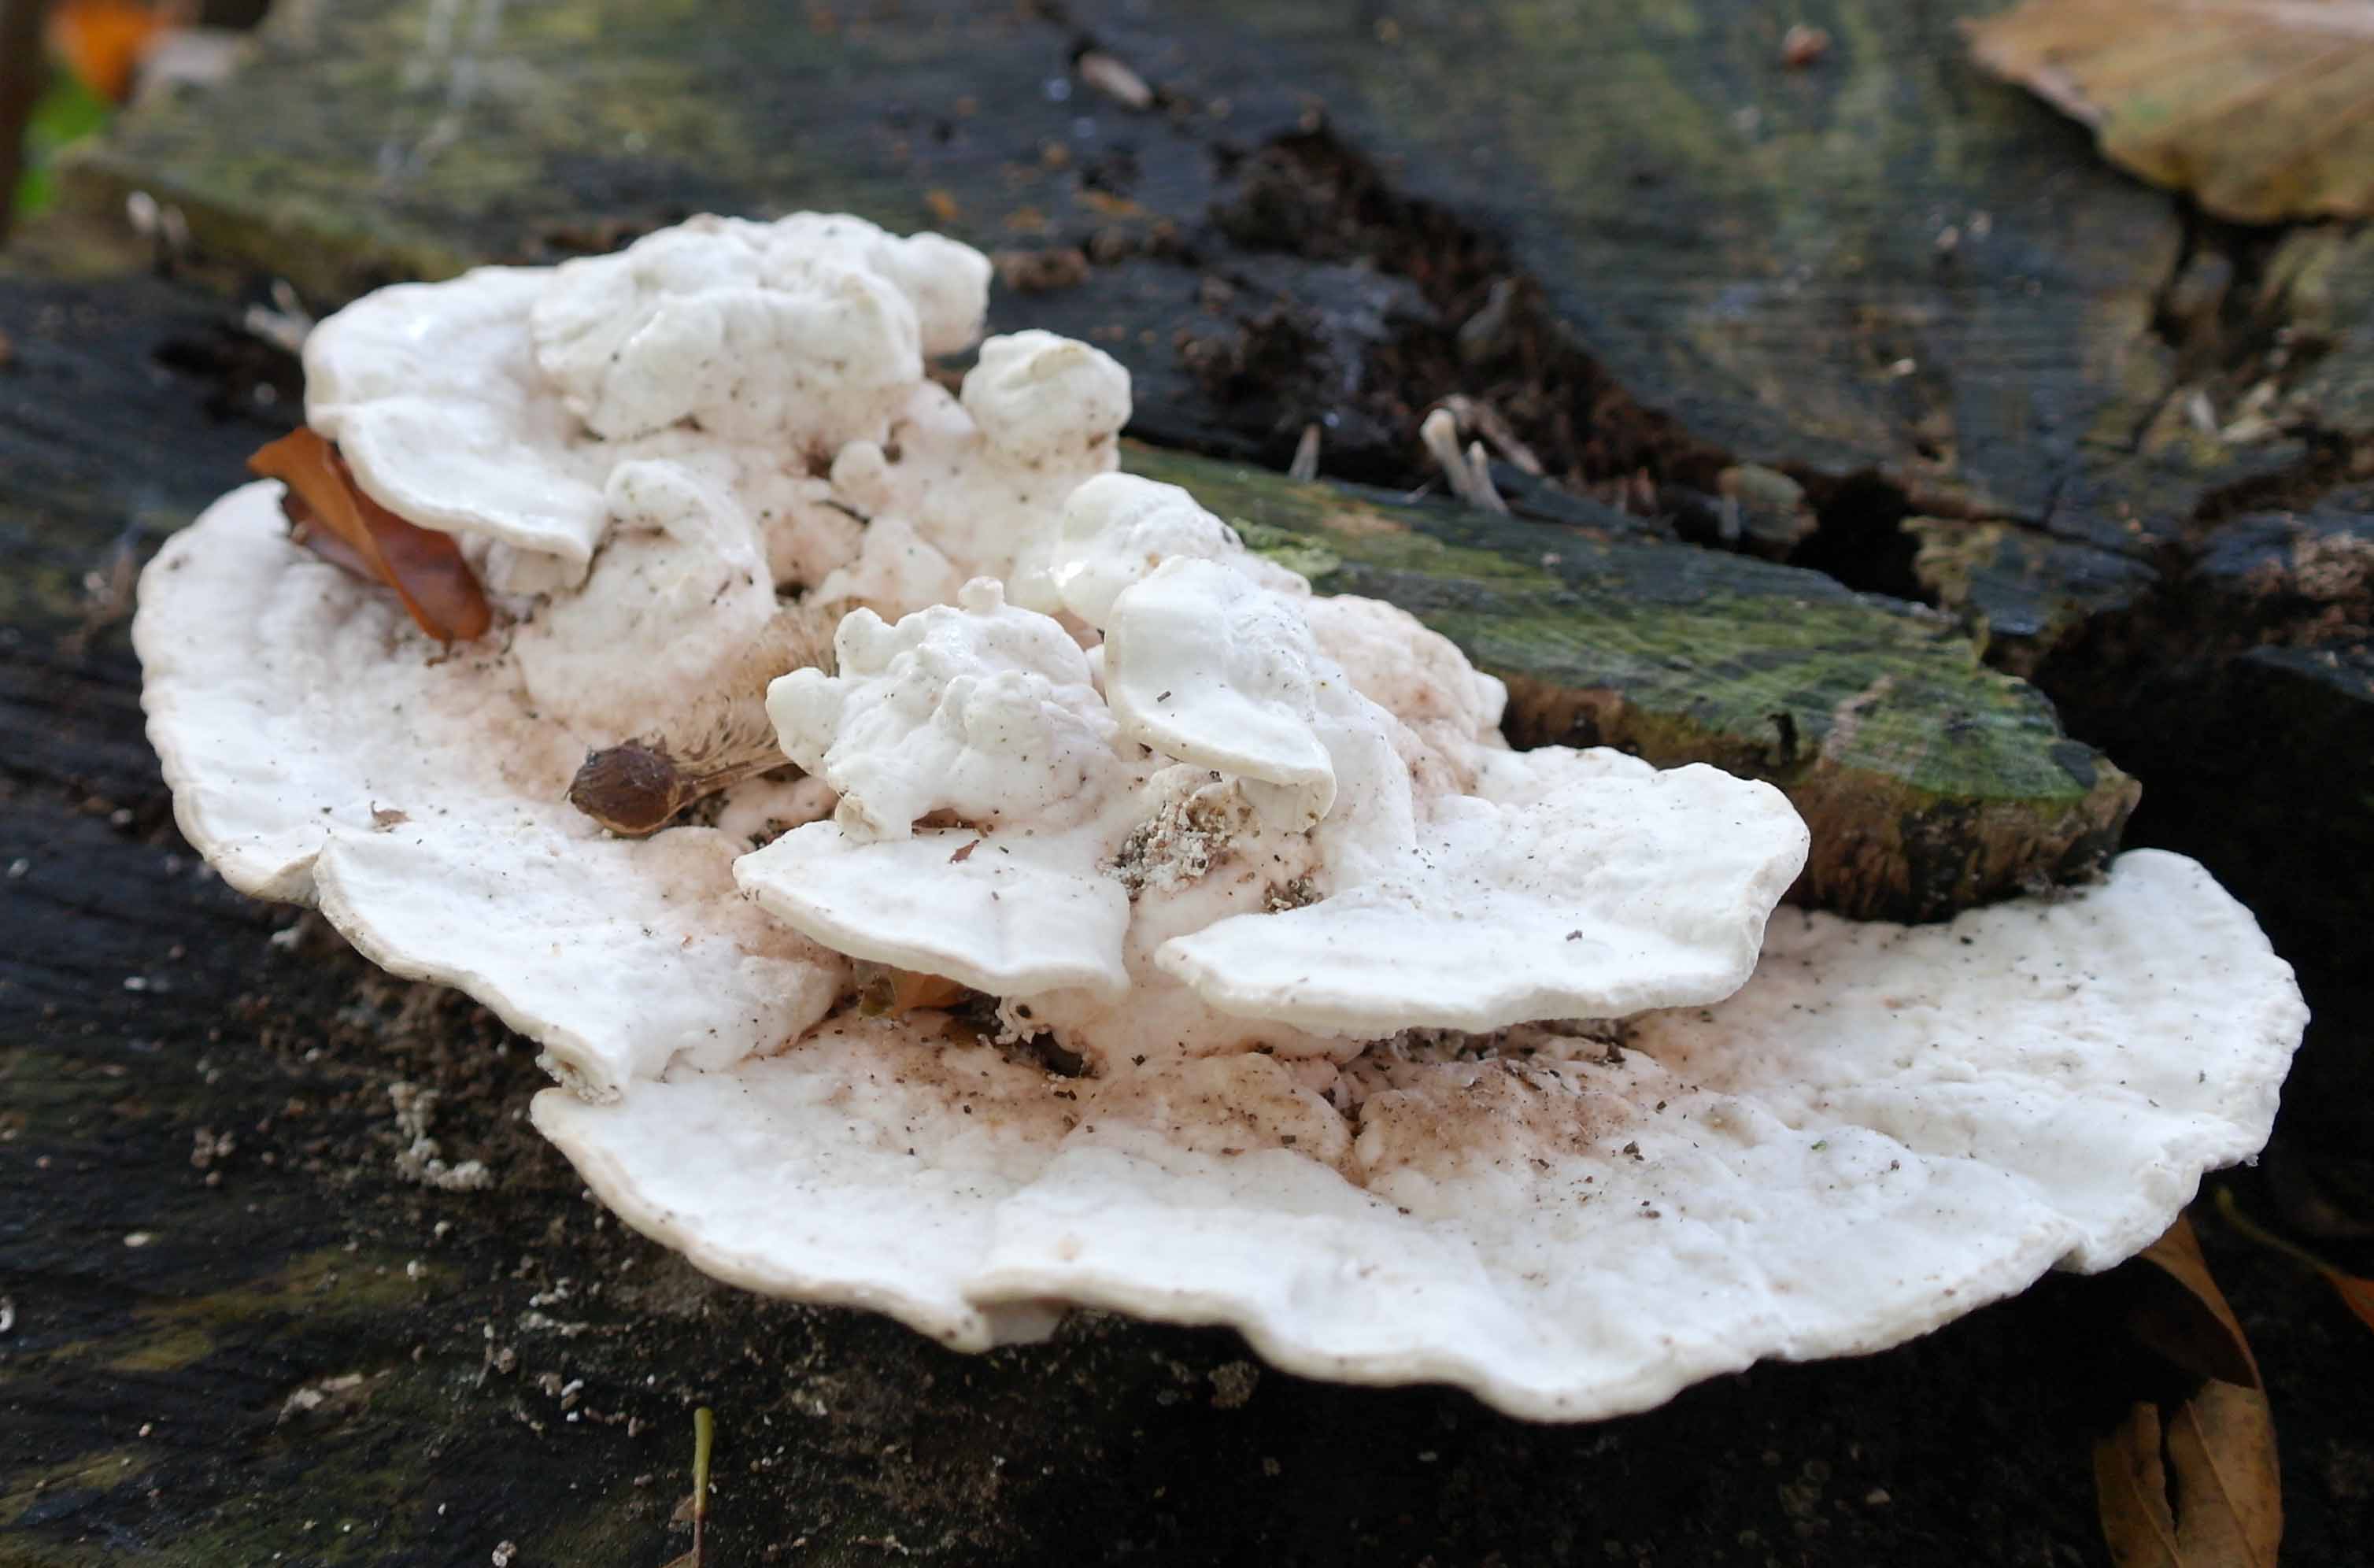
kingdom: Fungi
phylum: Basidiomycota
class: Agaricomycetes
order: Polyporales
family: Polyporaceae
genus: Trametes
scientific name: Trametes gibbosa
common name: puklet læderporesvamp
